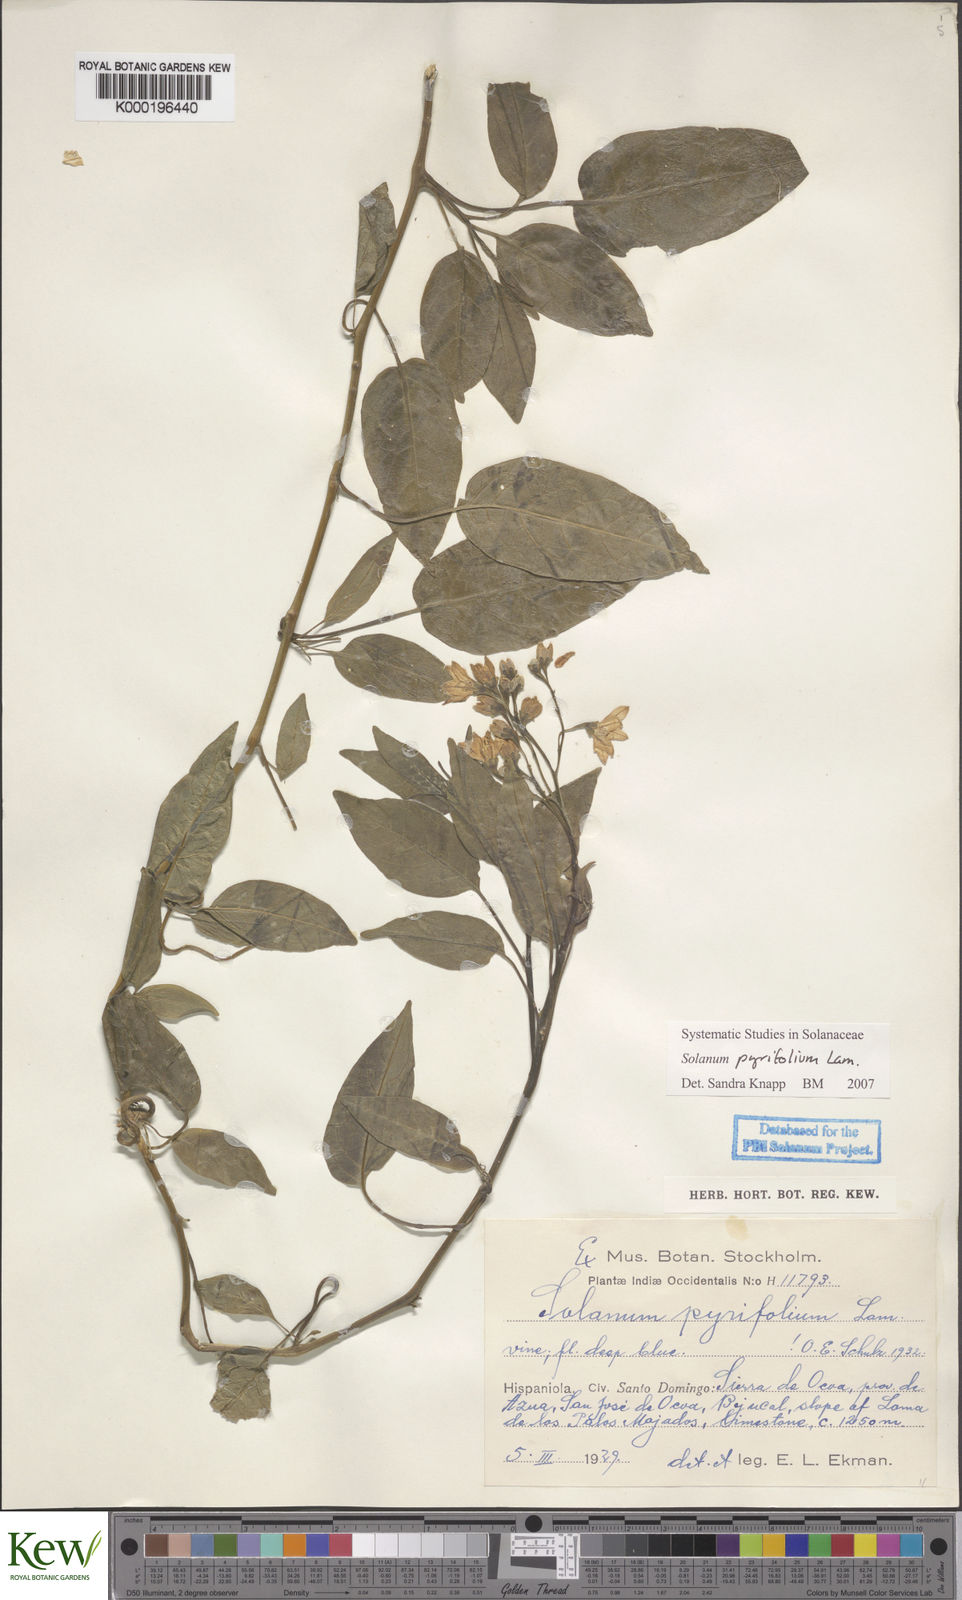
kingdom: Plantae
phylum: Tracheophyta
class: Magnoliopsida
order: Solanales
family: Solanaceae
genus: Solanum
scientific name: Solanum pyrifolium
